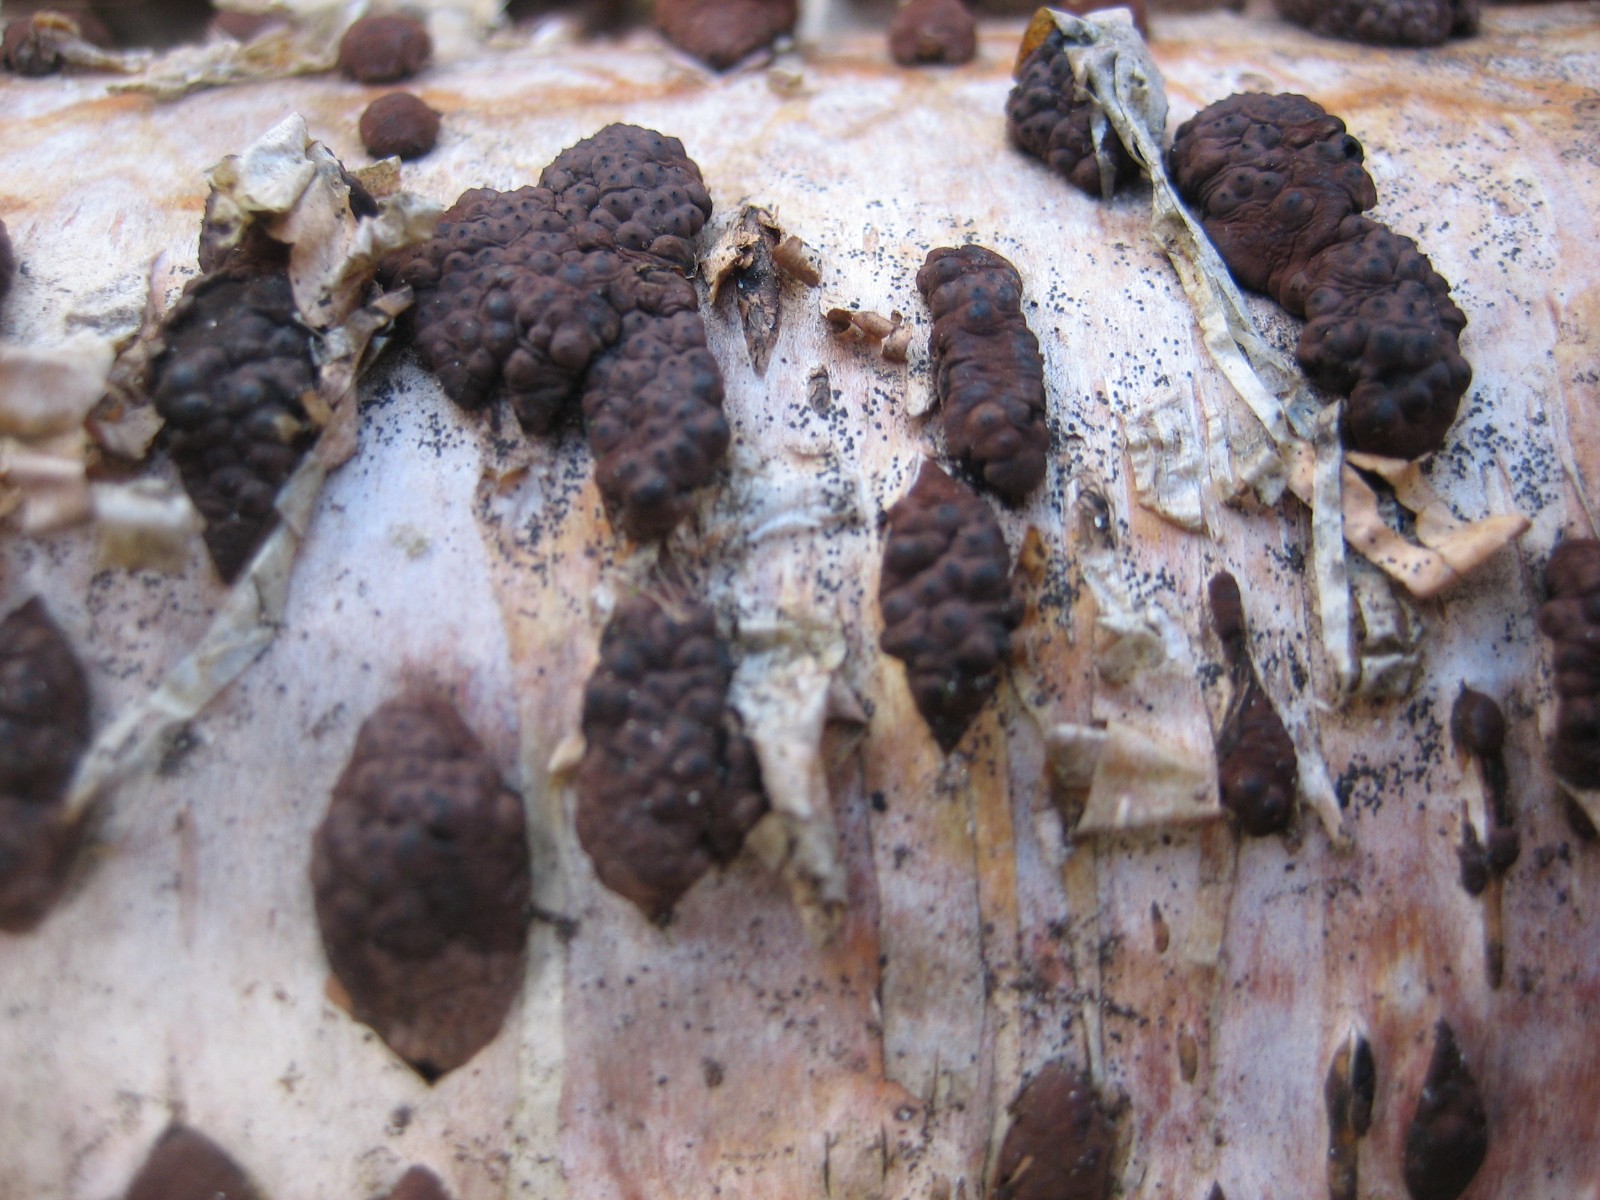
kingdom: Fungi
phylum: Ascomycota
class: Sordariomycetes
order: Xylariales
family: Hypoxylaceae
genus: Jackrogersella
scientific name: Jackrogersella multiformis
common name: foranderlig kulbær
